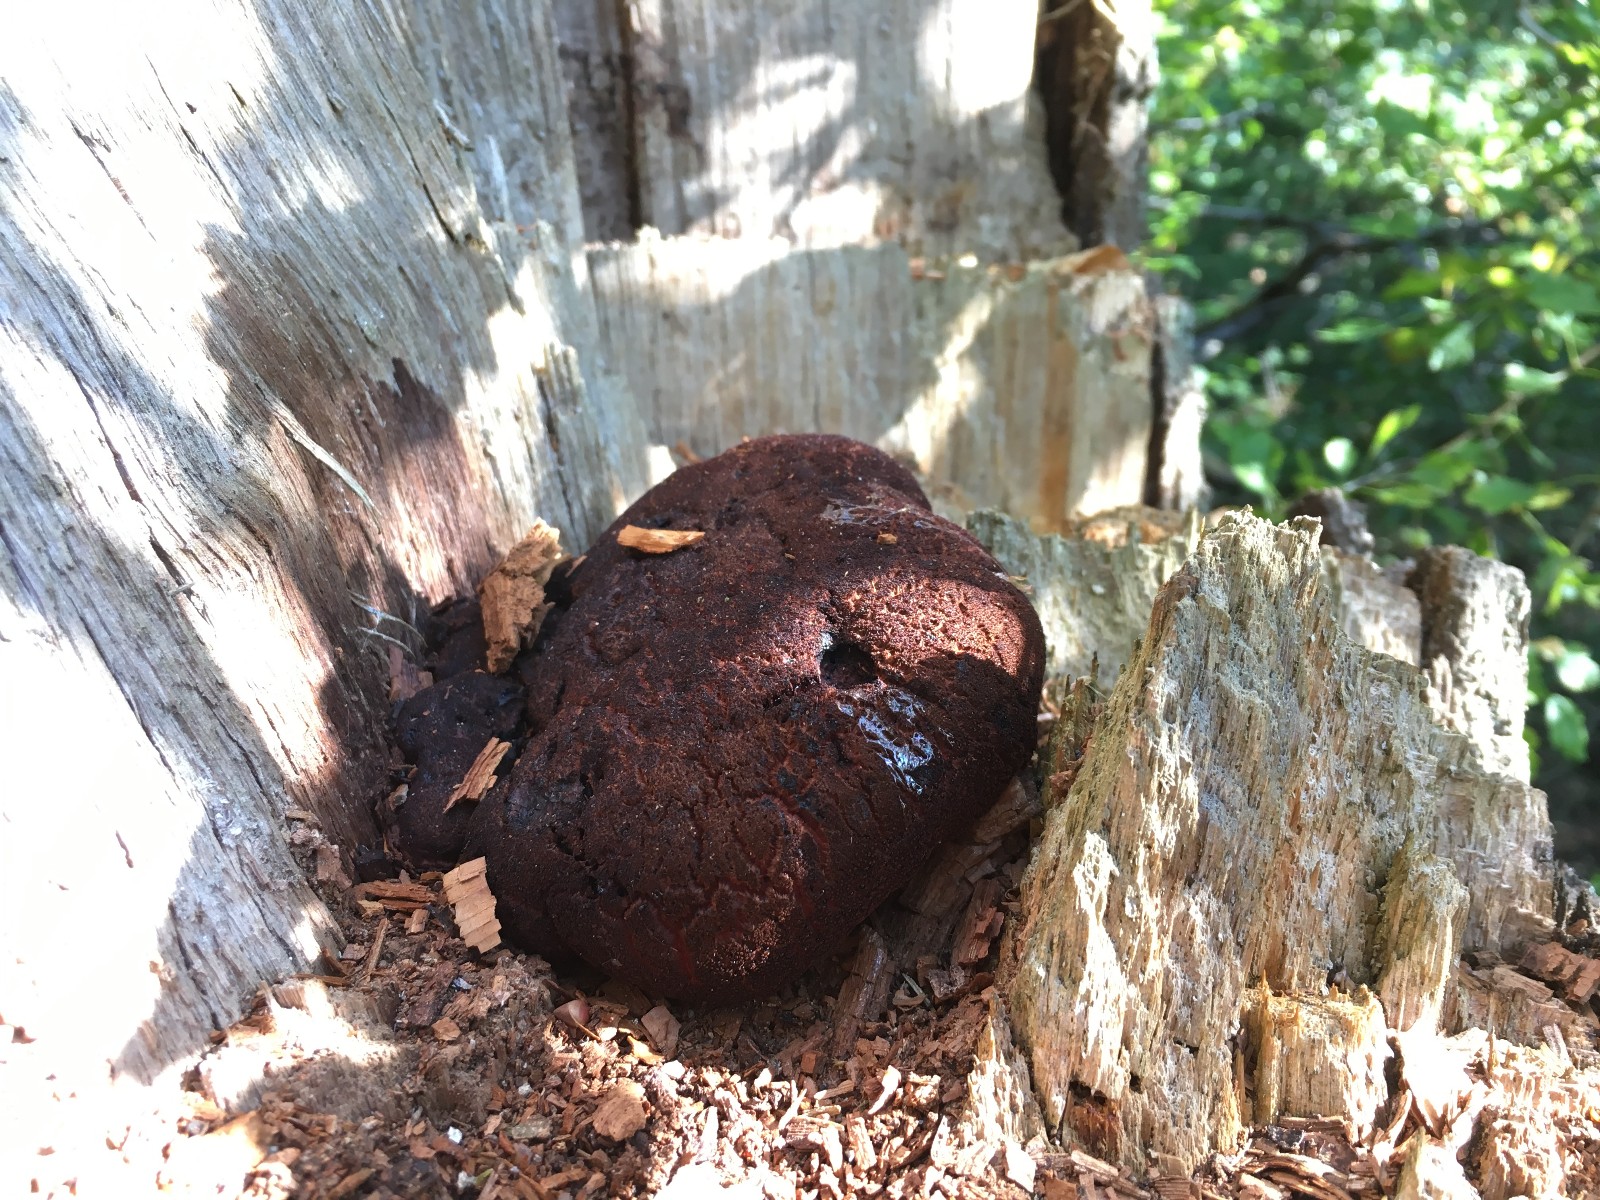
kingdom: Fungi
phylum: Basidiomycota
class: Agaricomycetes
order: Agaricales
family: Fistulinaceae
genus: Fistulina
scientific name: Fistulina hepatica
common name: oksetunge
